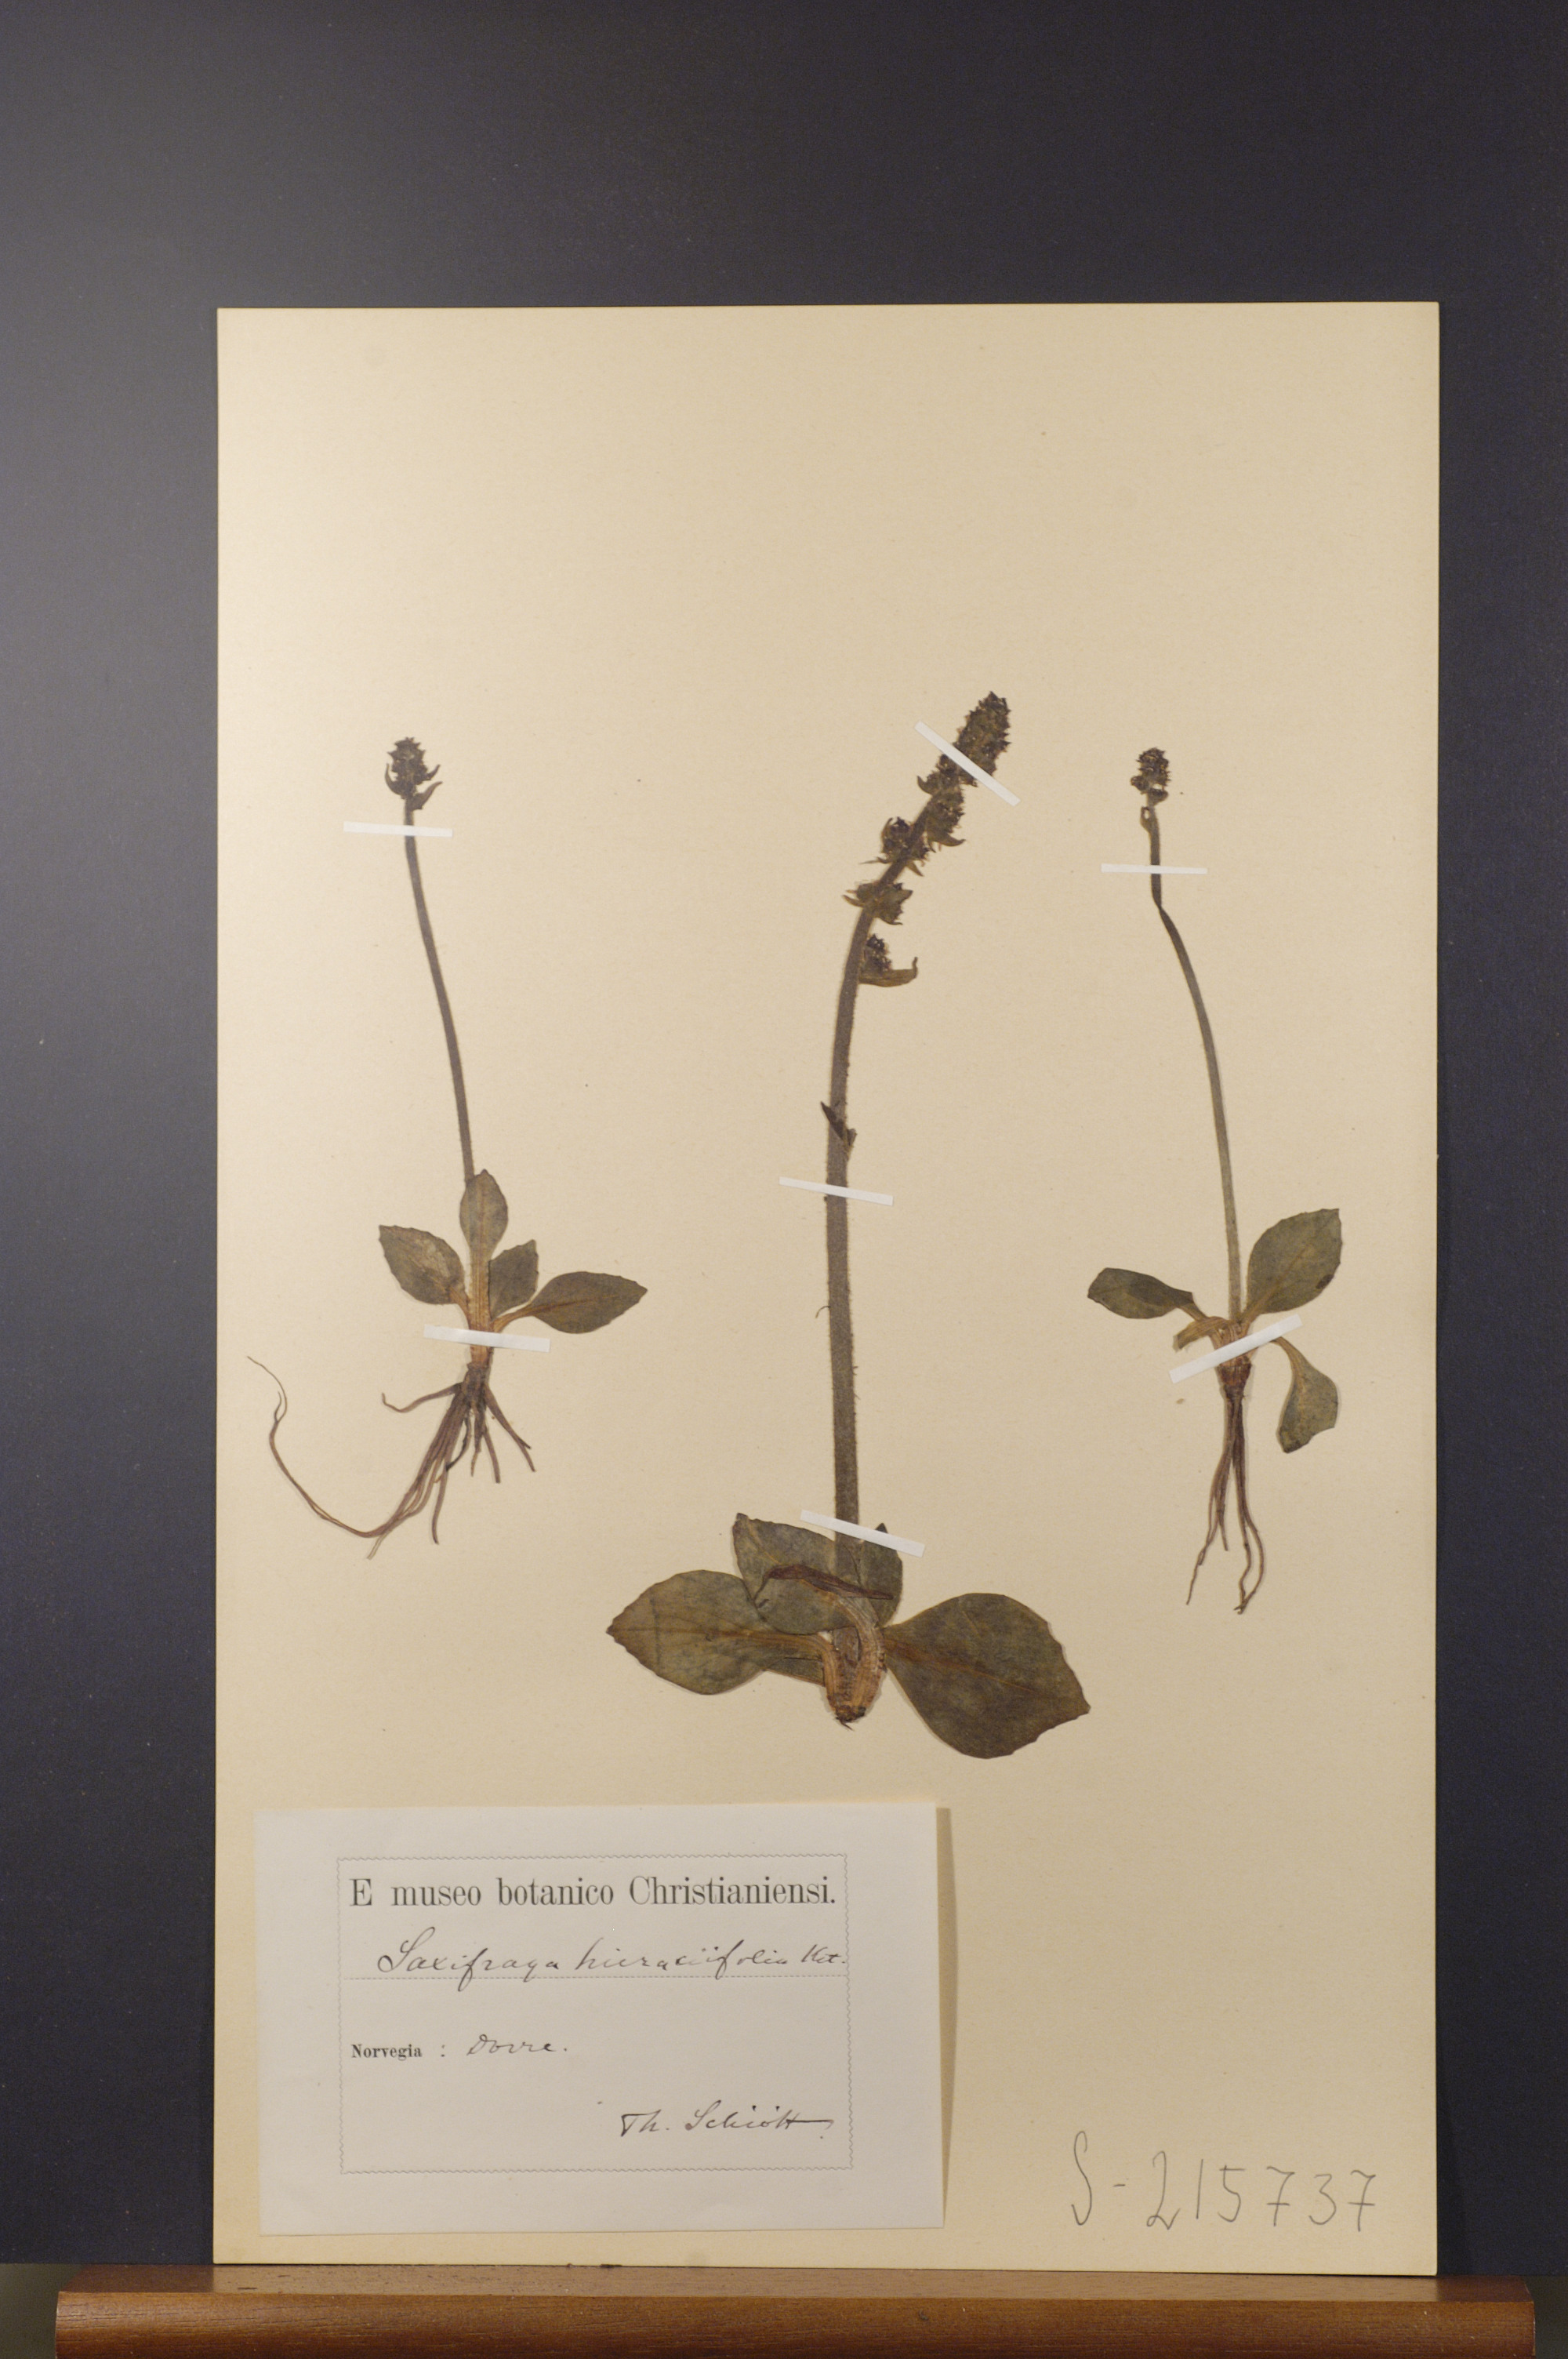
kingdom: Plantae
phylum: Tracheophyta
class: Magnoliopsida
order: Saxifragales
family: Saxifragaceae
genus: Micranthes
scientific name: Micranthes hieraciifolia
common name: Hawkweed-leaved saxifrage
